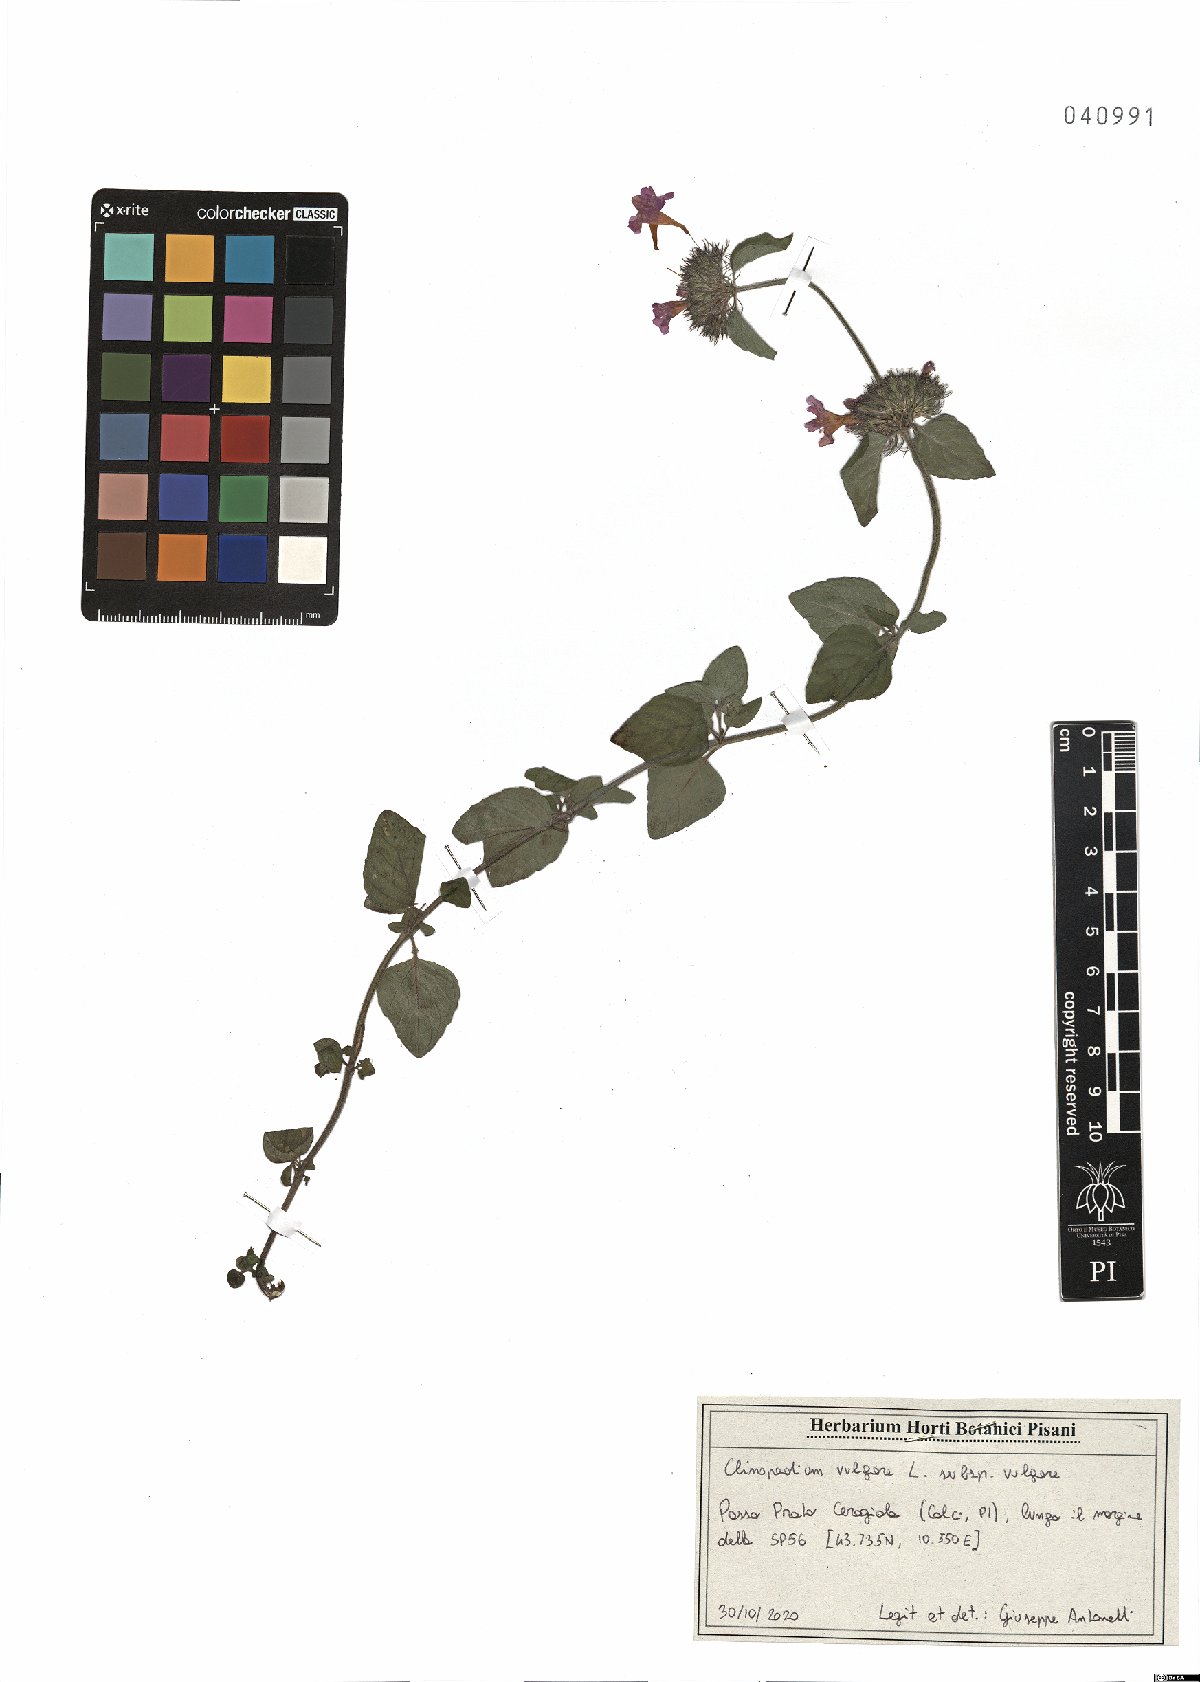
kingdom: Plantae
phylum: Tracheophyta
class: Magnoliopsida
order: Lamiales
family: Lamiaceae
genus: Clinopodium
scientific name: Clinopodium vulgare
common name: Wild basil
